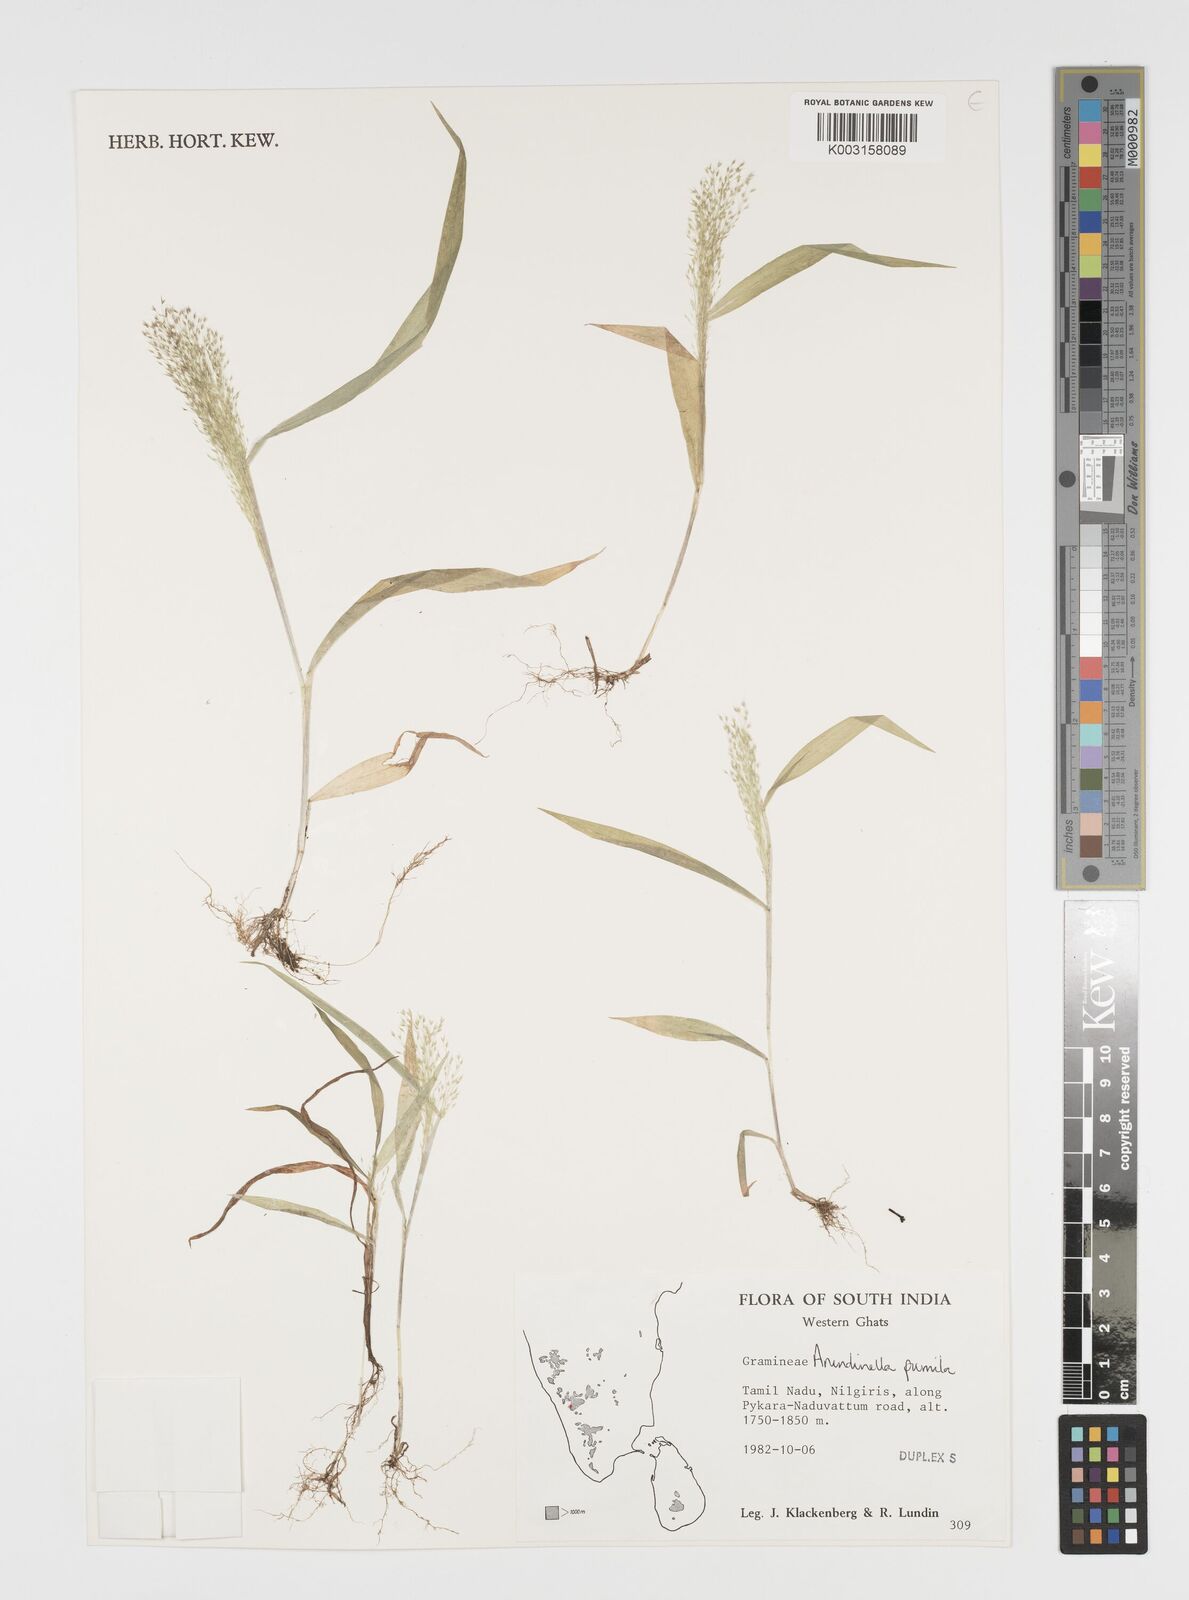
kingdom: Plantae
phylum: Tracheophyta
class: Liliopsida
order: Poales
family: Poaceae
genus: Arundinella
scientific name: Arundinella pumila
